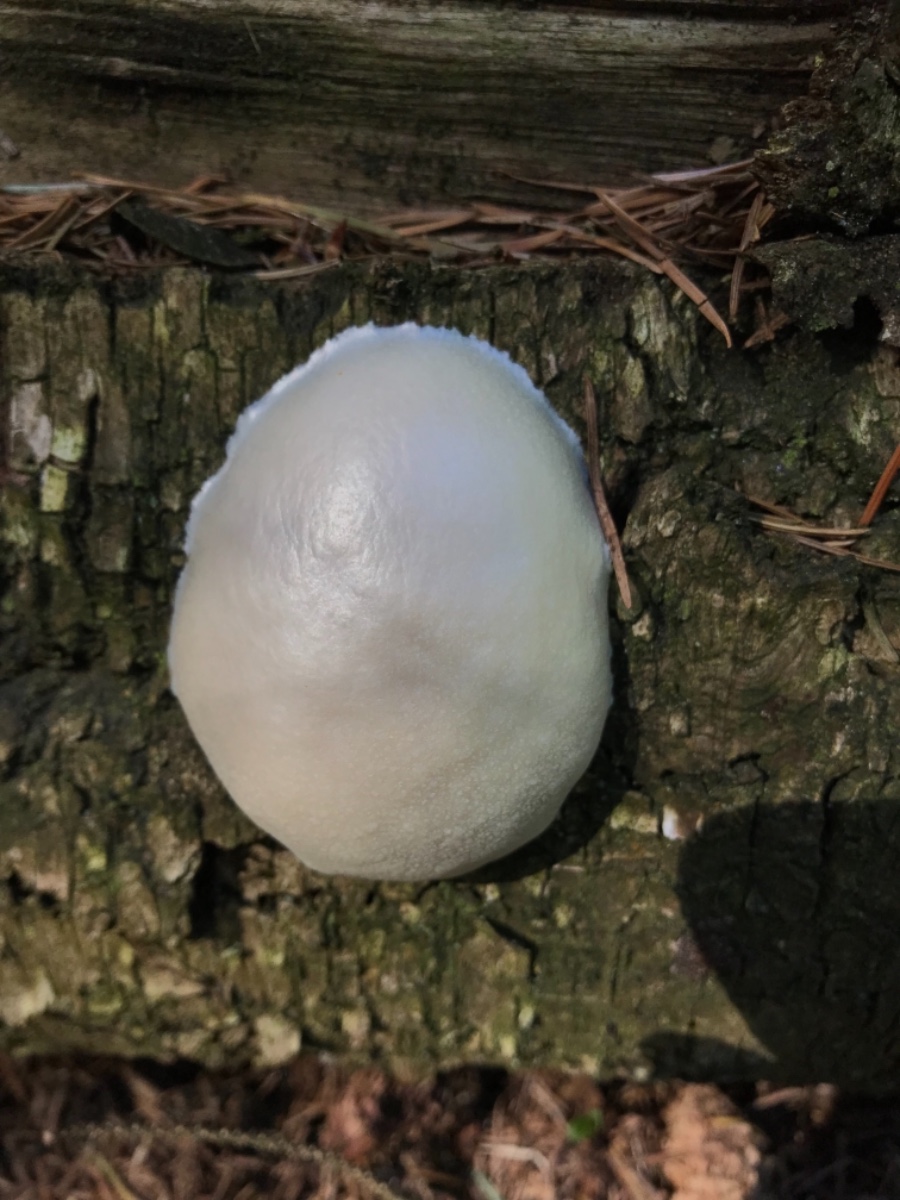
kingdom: Protozoa
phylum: Mycetozoa
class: Myxomycetes
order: Cribrariales
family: Tubiferaceae
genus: Reticularia
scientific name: Reticularia lycoperdon
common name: skinnende støvpude
